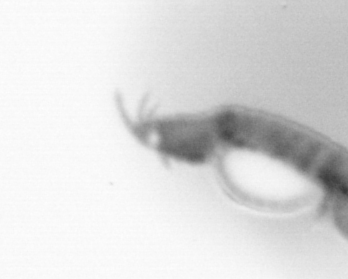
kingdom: Animalia
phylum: Annelida
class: Polychaeta
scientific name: Polychaeta
